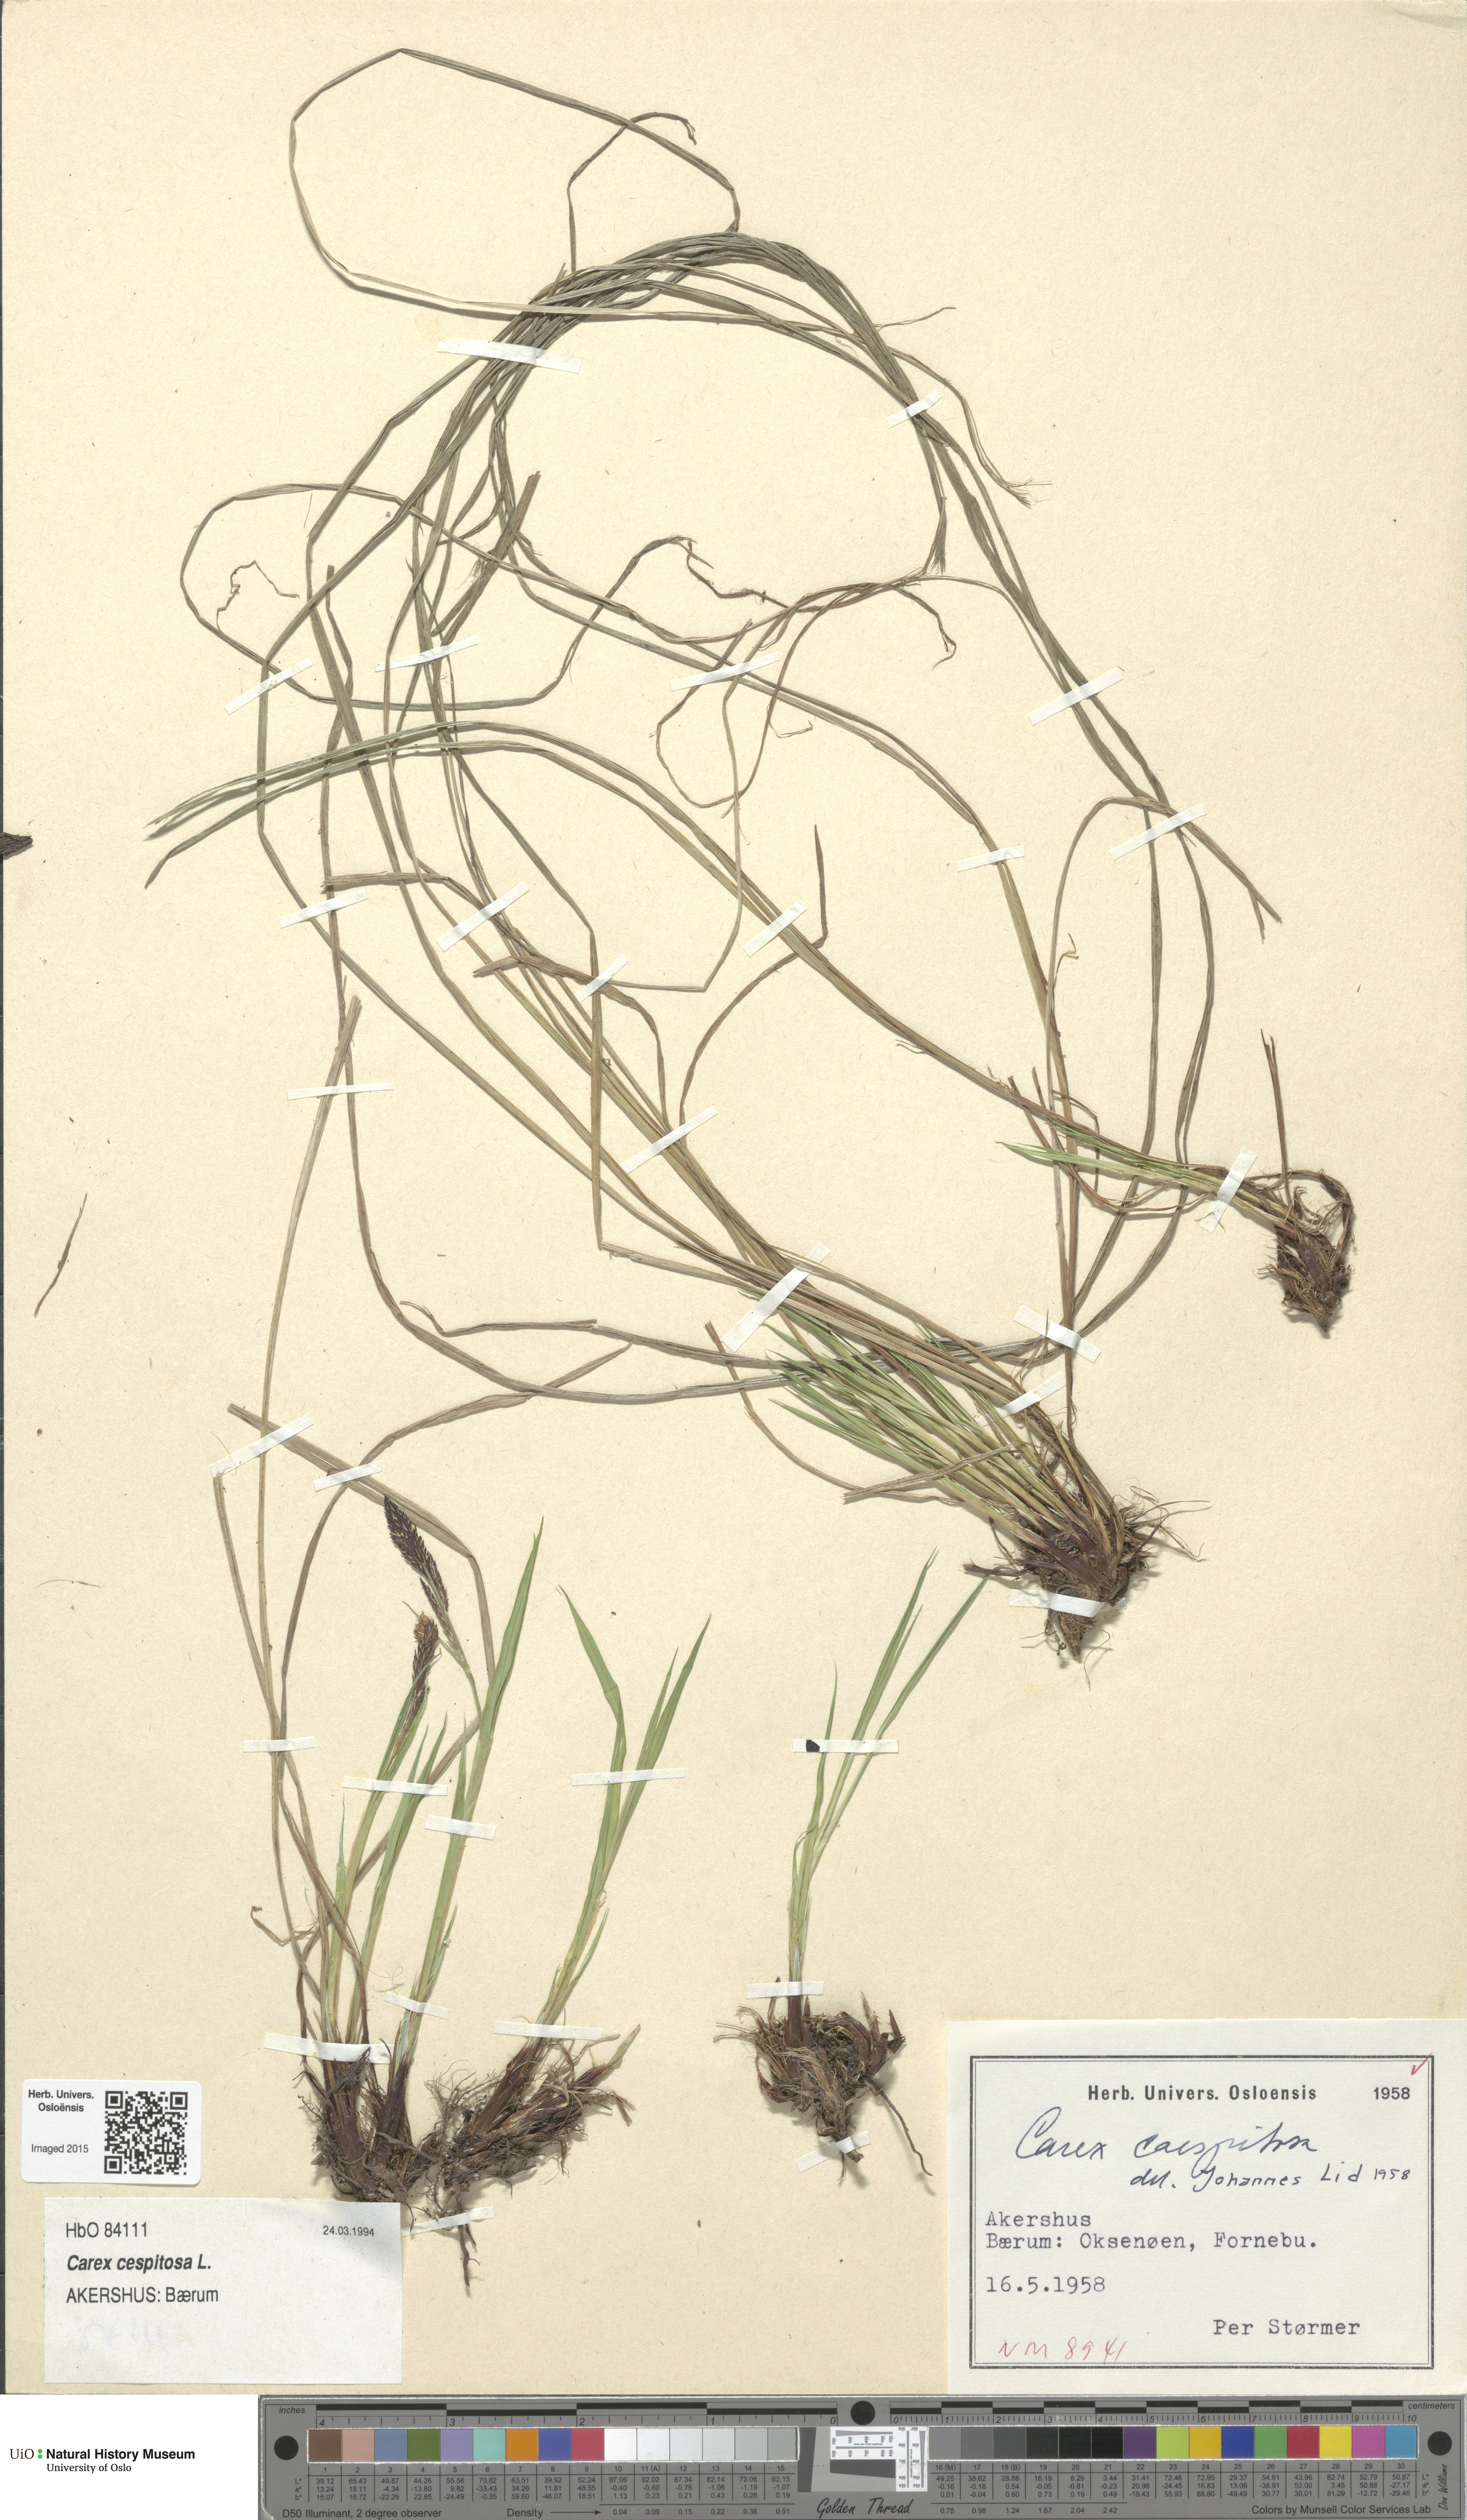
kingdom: Plantae
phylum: Tracheophyta
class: Liliopsida
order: Poales
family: Cyperaceae
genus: Carex
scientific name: Carex cespitosa
